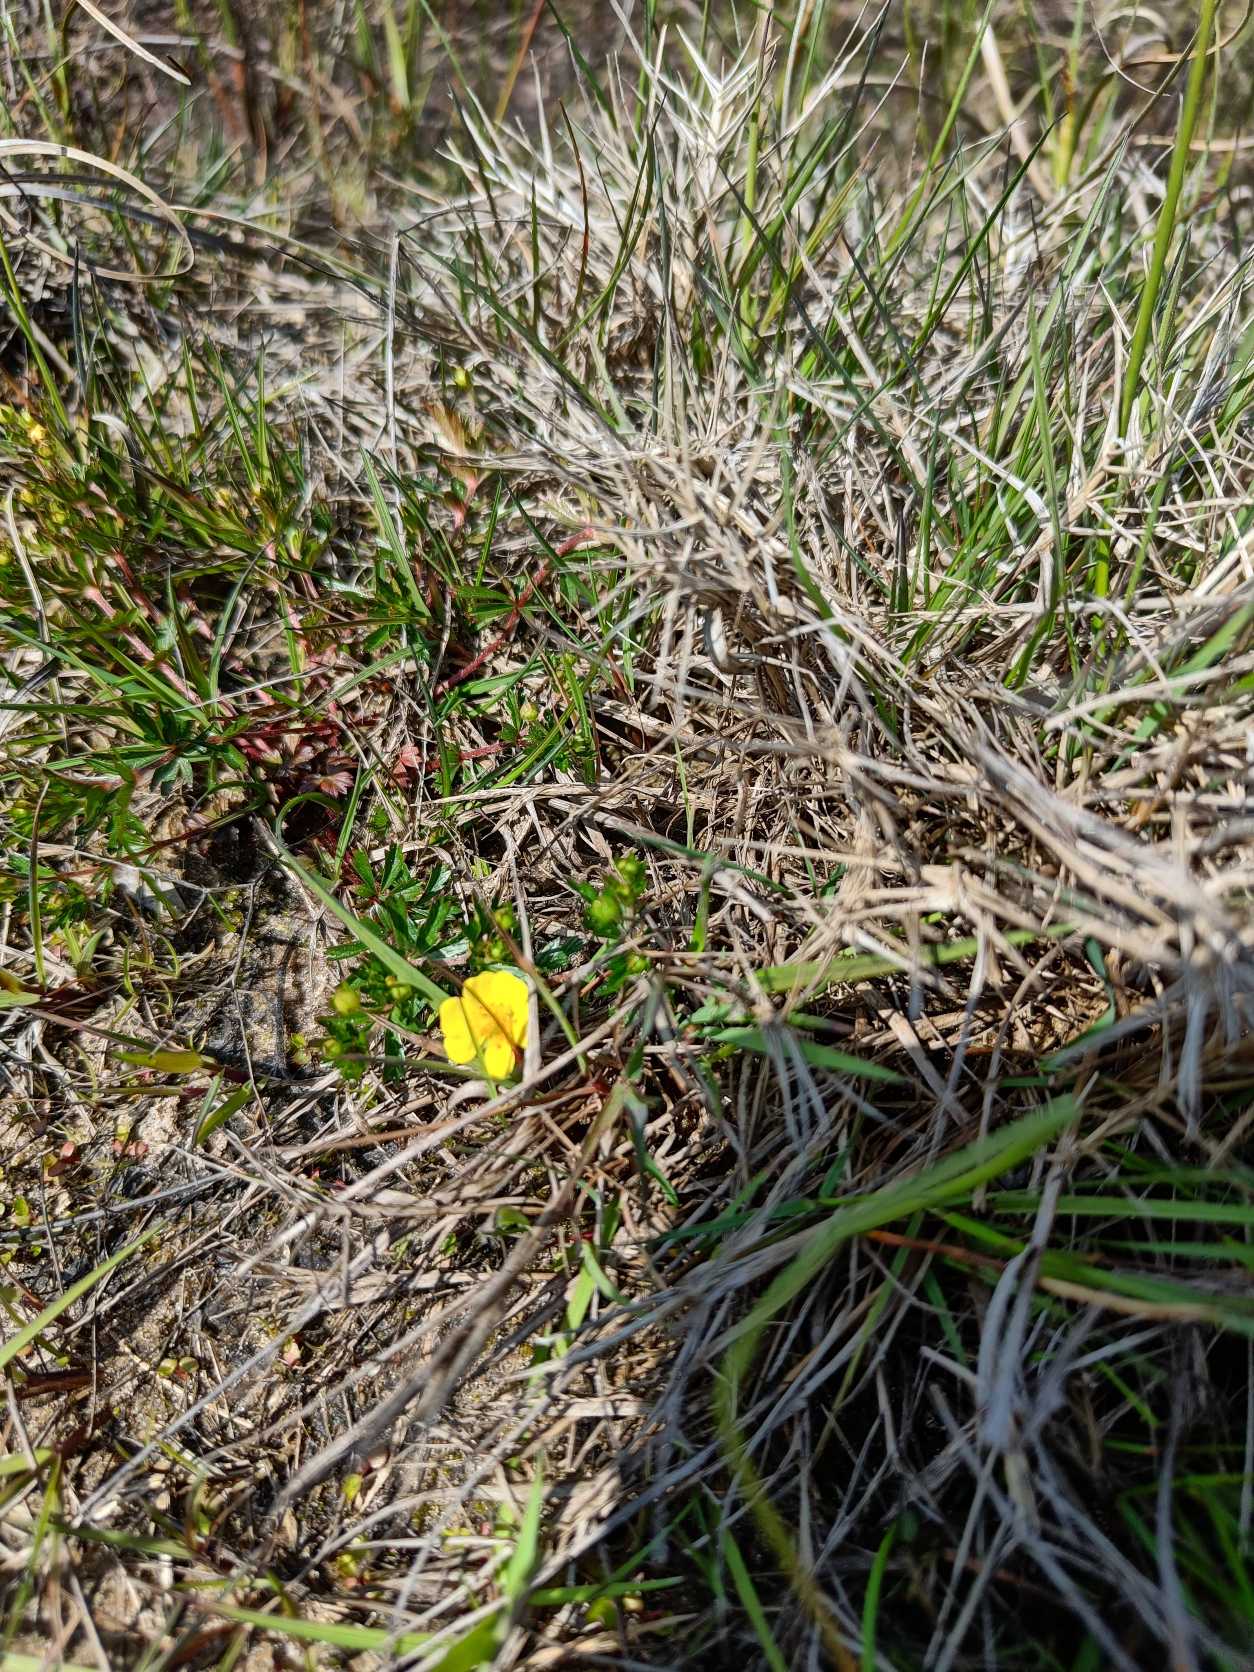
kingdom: Plantae
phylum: Tracheophyta
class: Magnoliopsida
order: Rosales
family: Rosaceae
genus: Potentilla
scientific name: Potentilla erecta
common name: Tormentil
